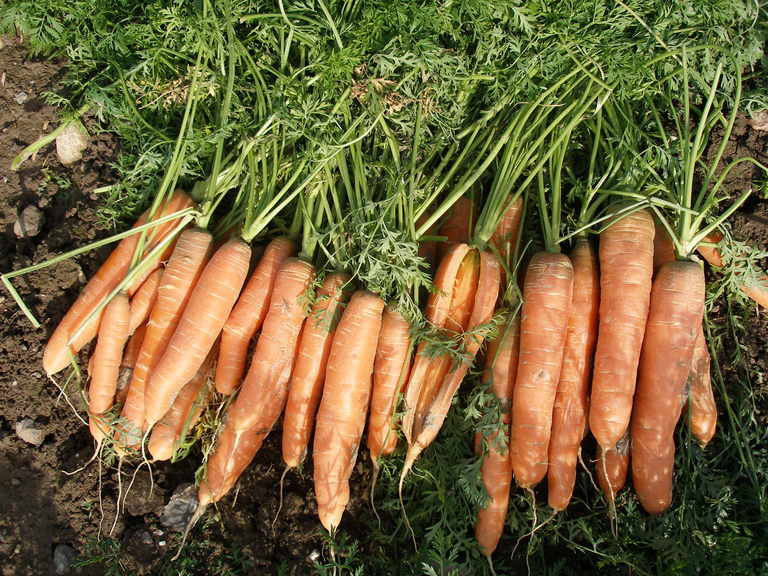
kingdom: Plantae
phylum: Tracheophyta
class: Magnoliopsida
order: Apiales
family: Apiaceae
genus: Daucus
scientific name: Daucus carota
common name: Wild carrot
